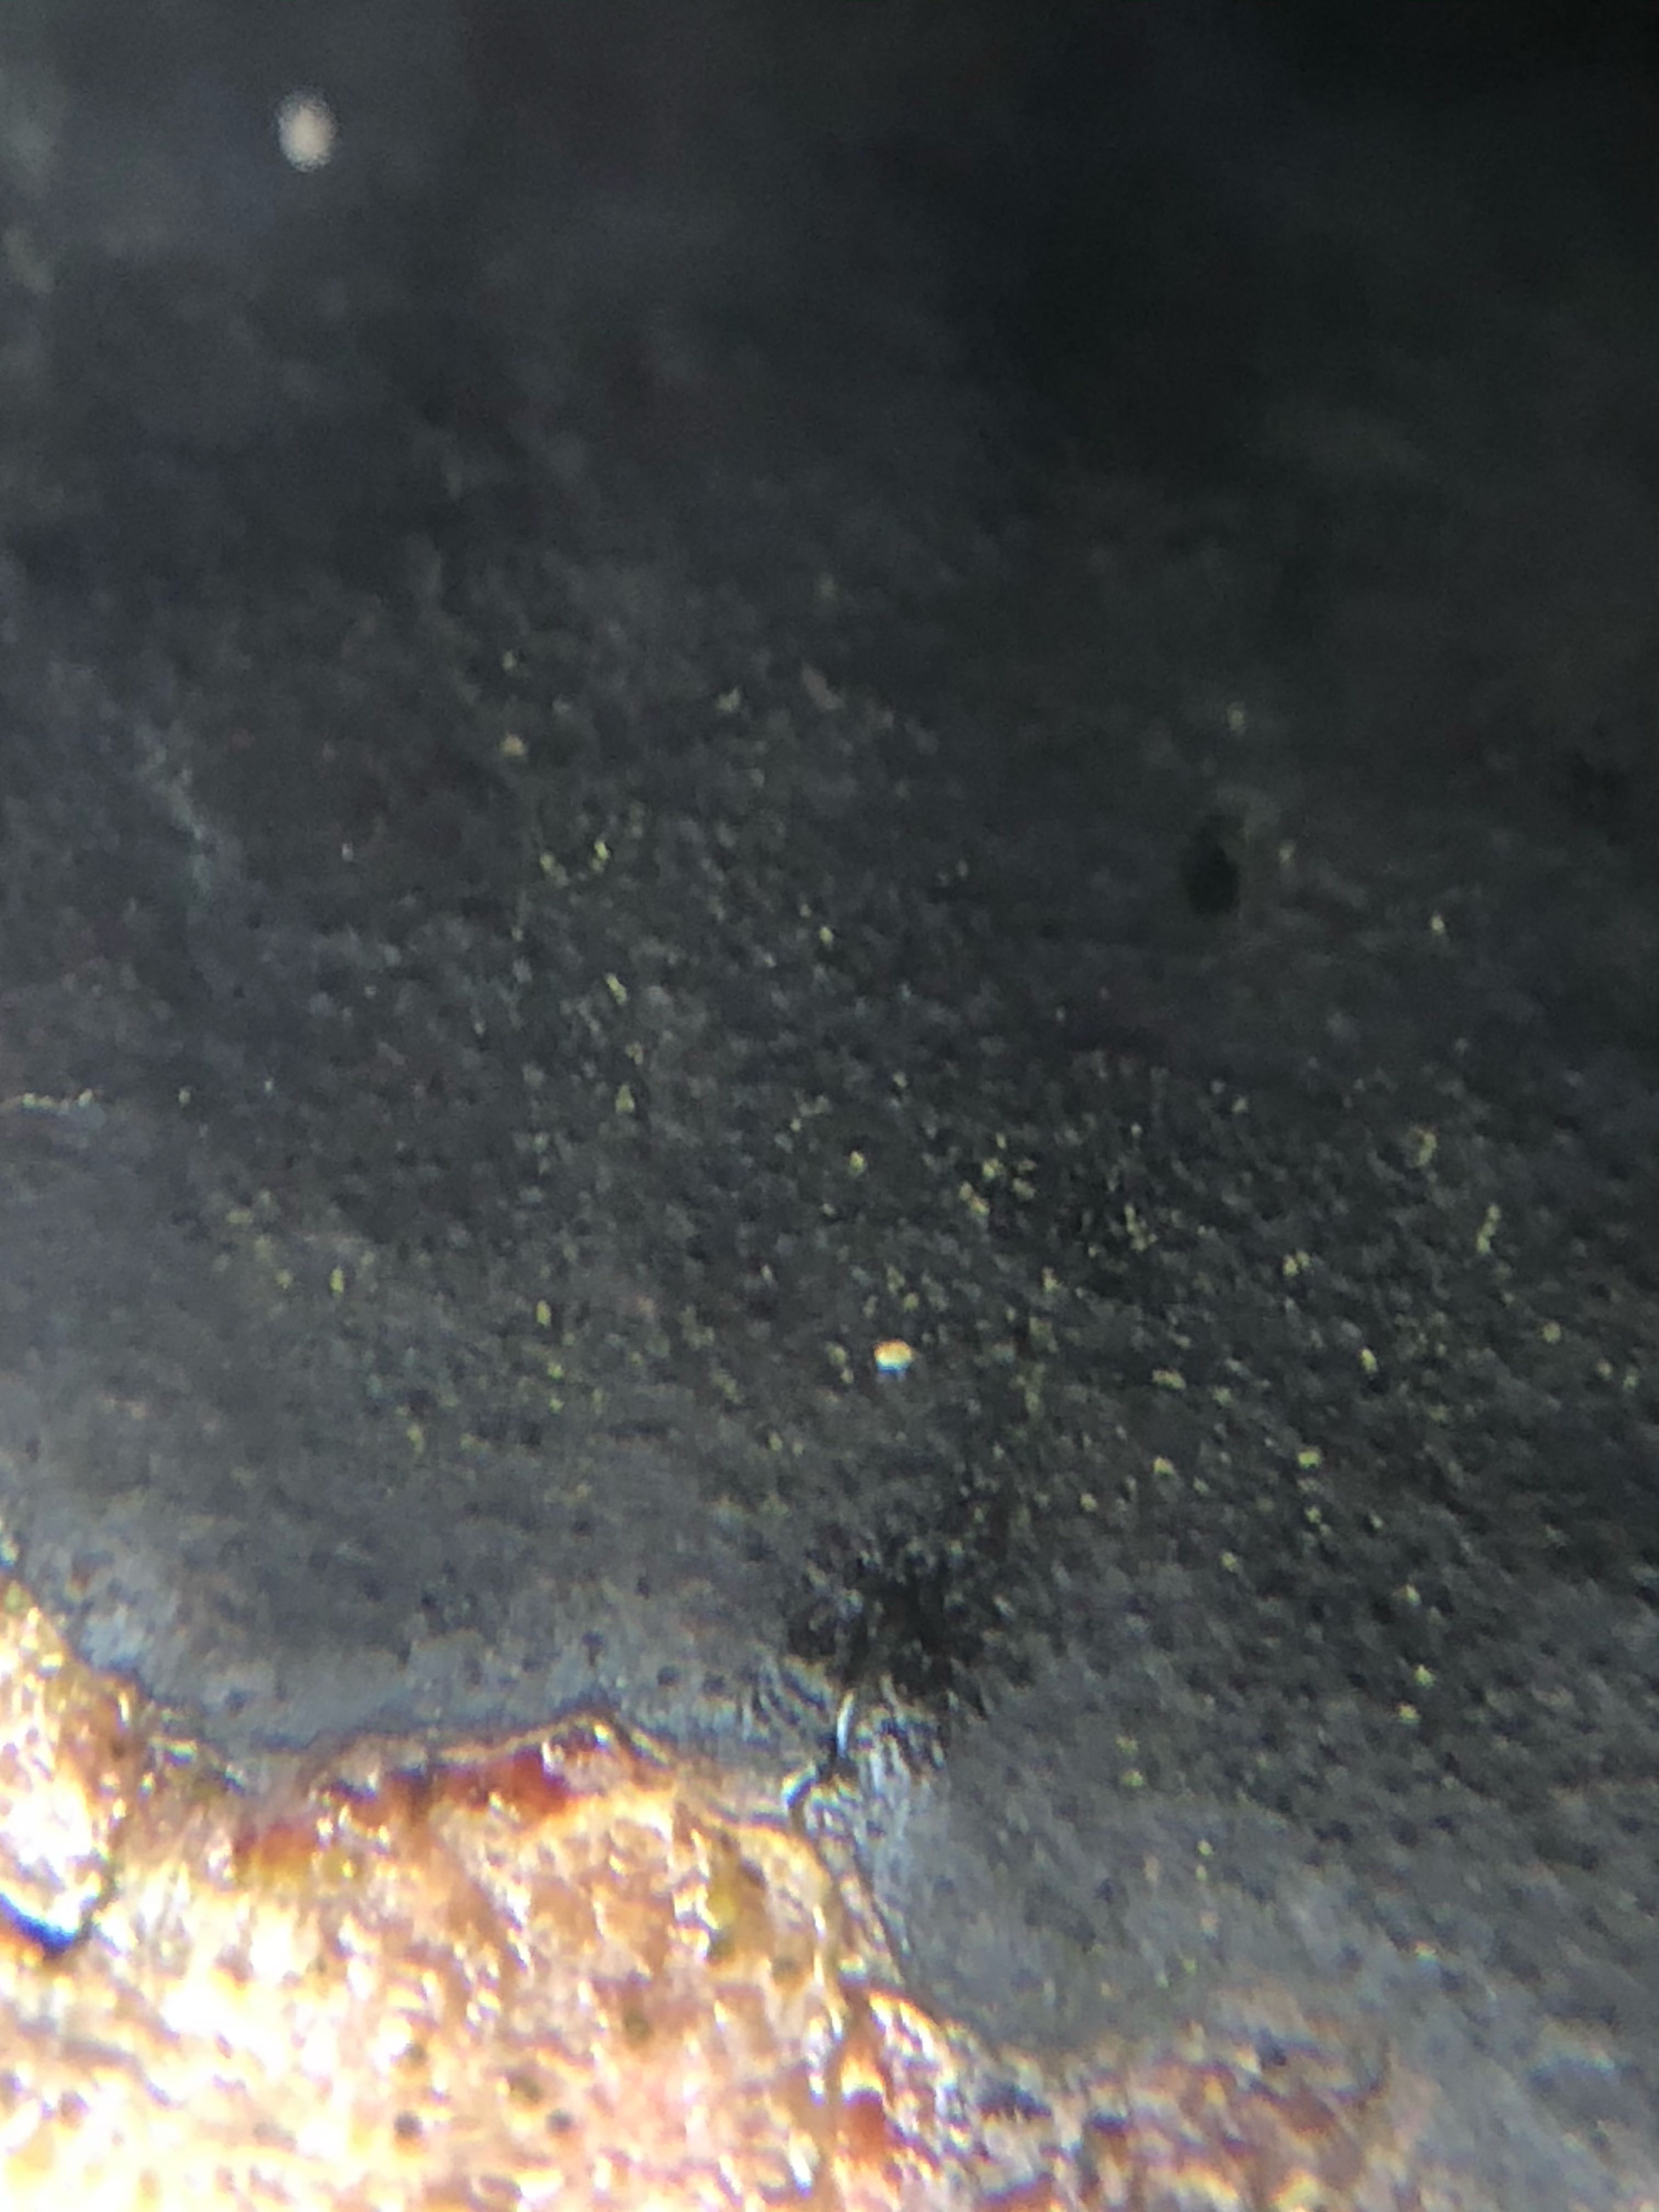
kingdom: Fungi
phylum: Ascomycota
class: Sordariomycetes
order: Xylariales
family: Diatrypaceae
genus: Diatrype
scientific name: Diatrype decorticata
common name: barksprænger-kulskorpe
